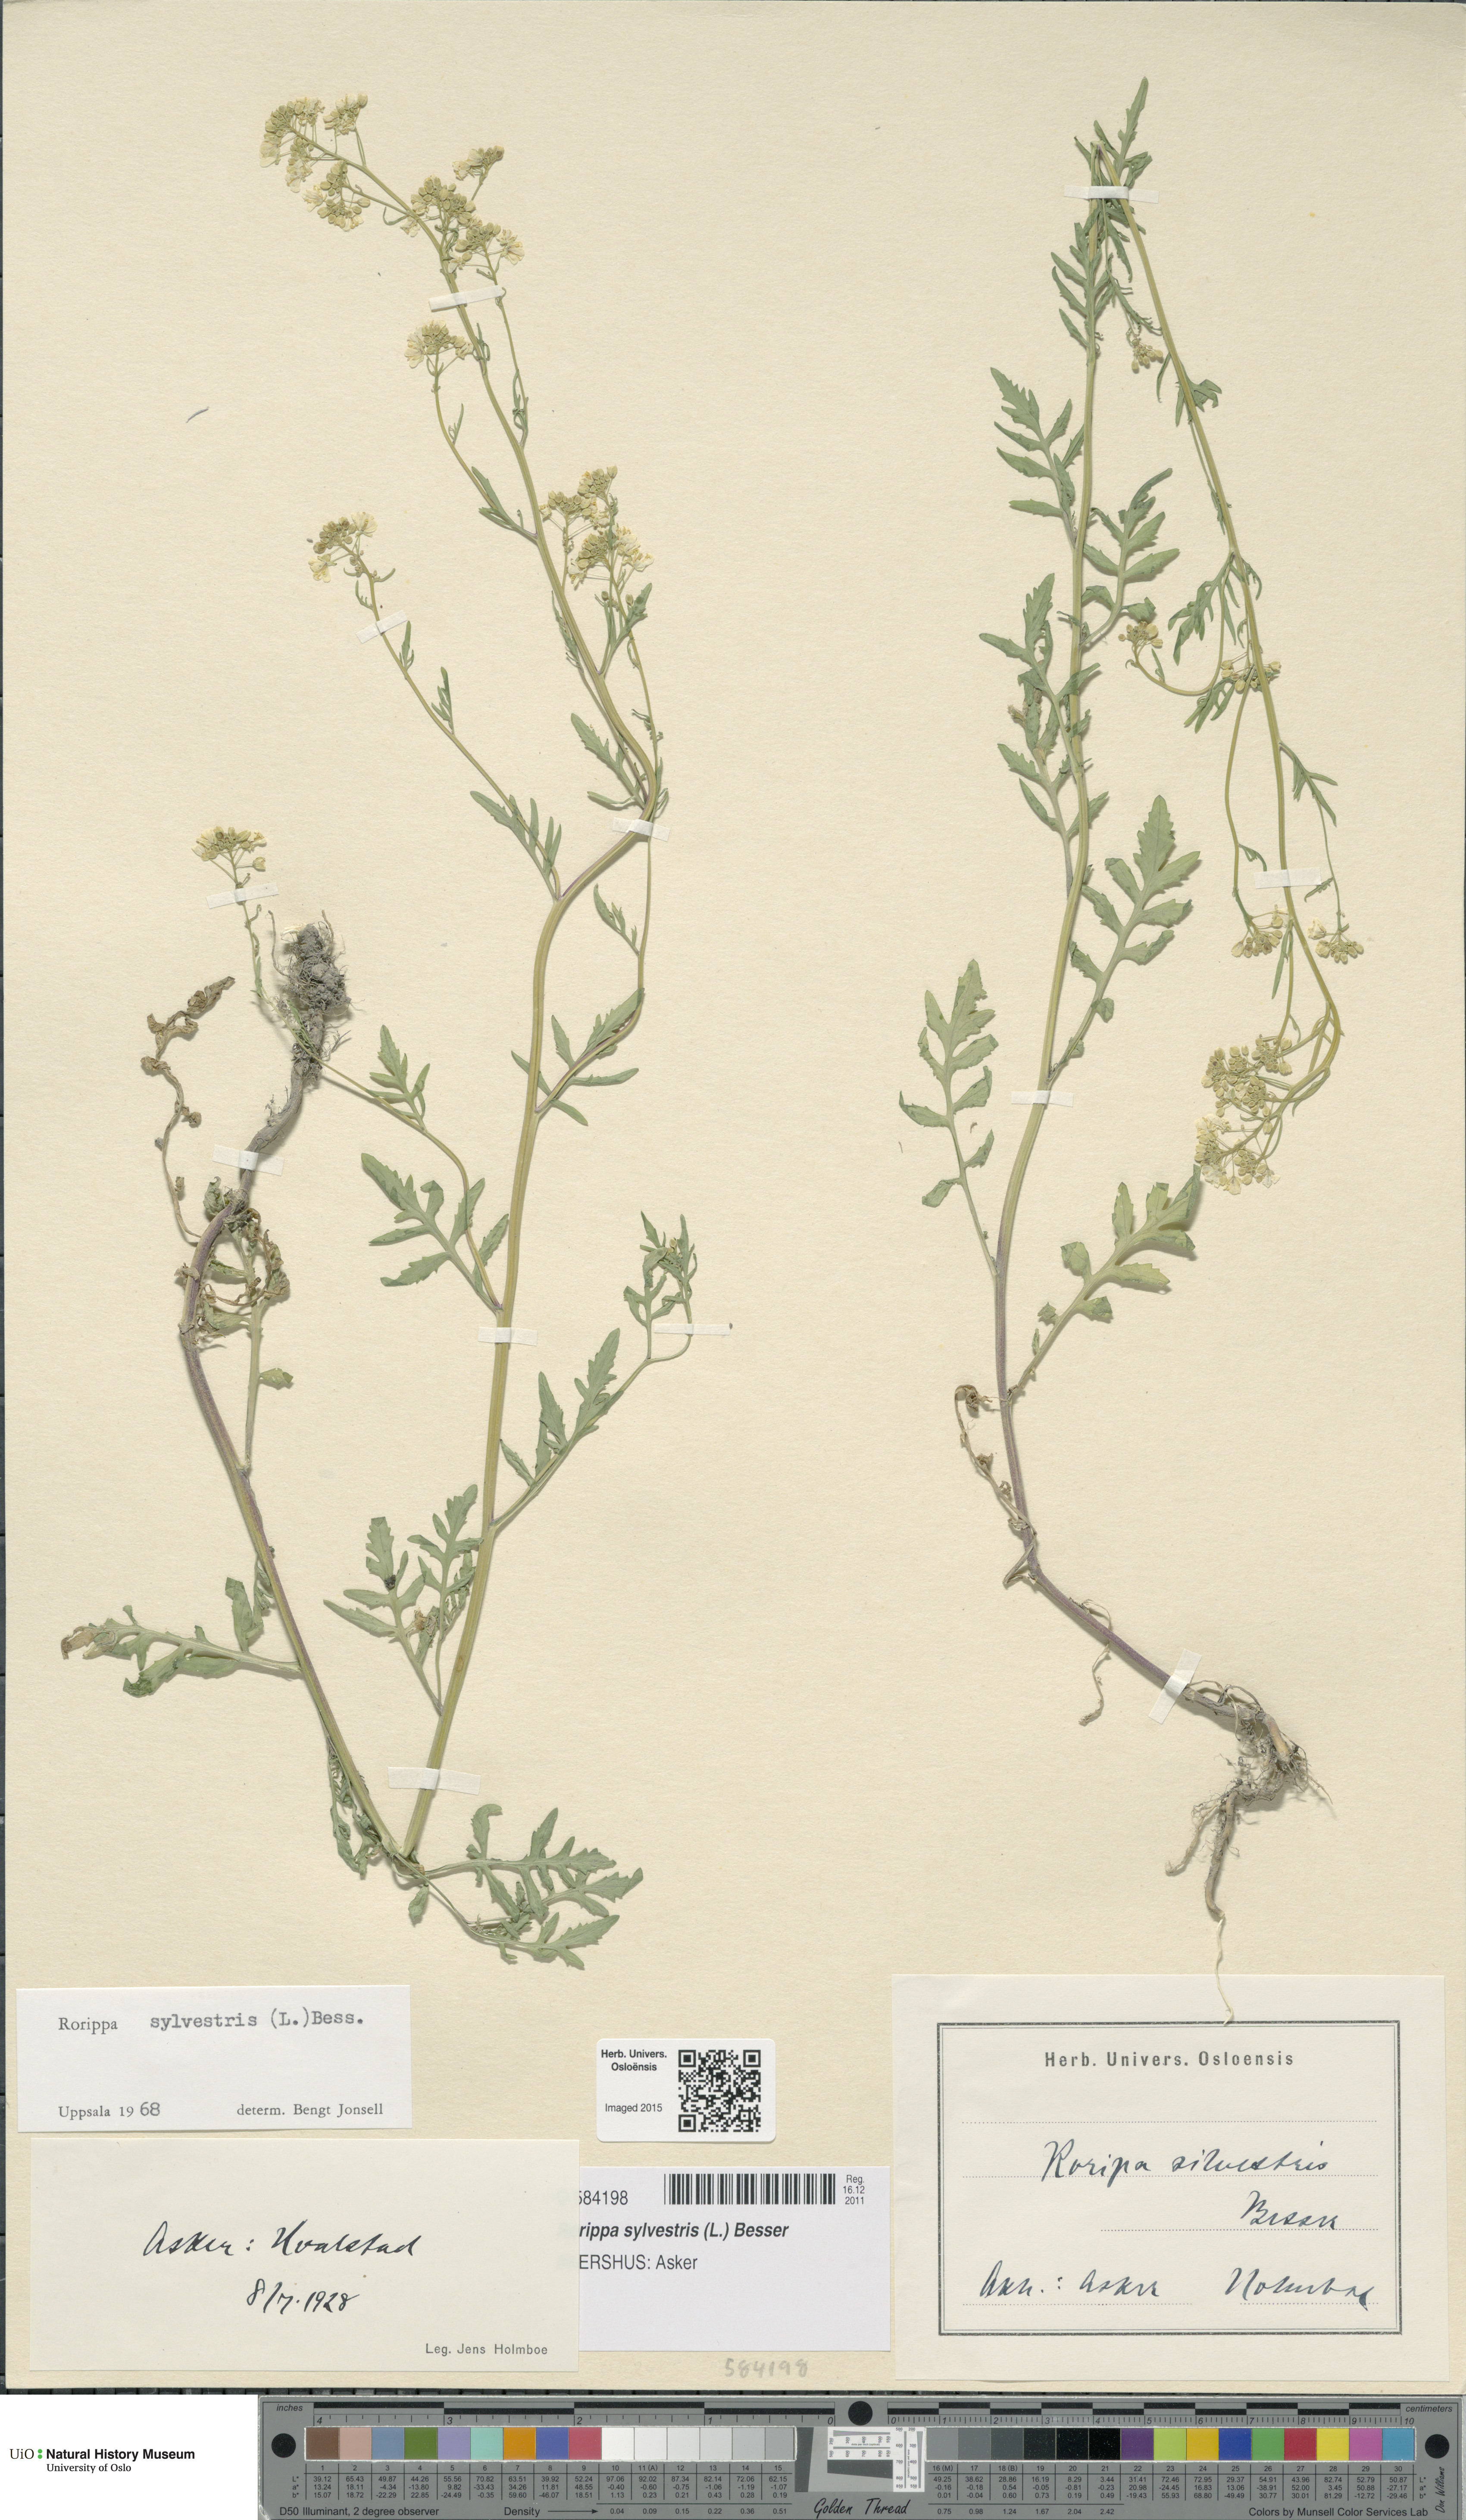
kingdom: Plantae
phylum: Tracheophyta
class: Magnoliopsida
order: Brassicales
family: Brassicaceae
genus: Rorippa
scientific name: Rorippa sylvestris
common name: Creeping yellowcress
